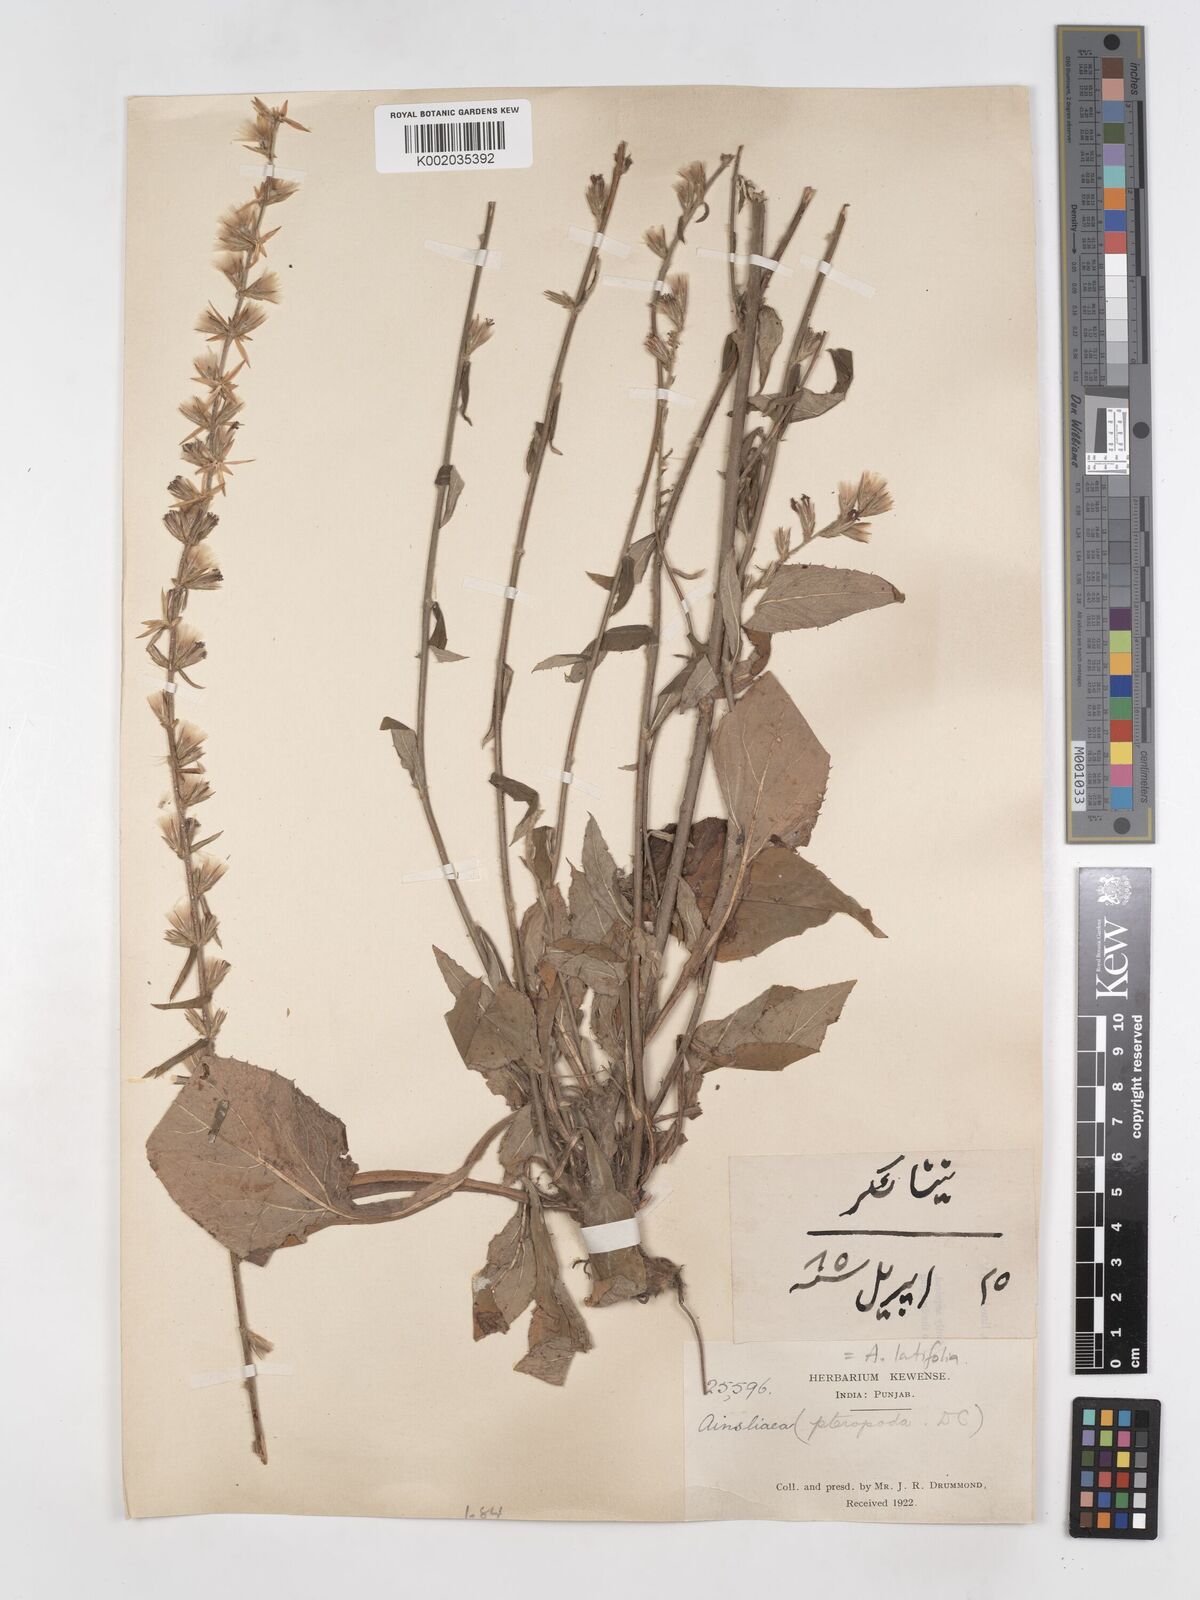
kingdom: Plantae
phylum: Tracheophyta
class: Magnoliopsida
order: Asterales
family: Asteraceae
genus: Ainsliaea
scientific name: Ainsliaea latifolia
